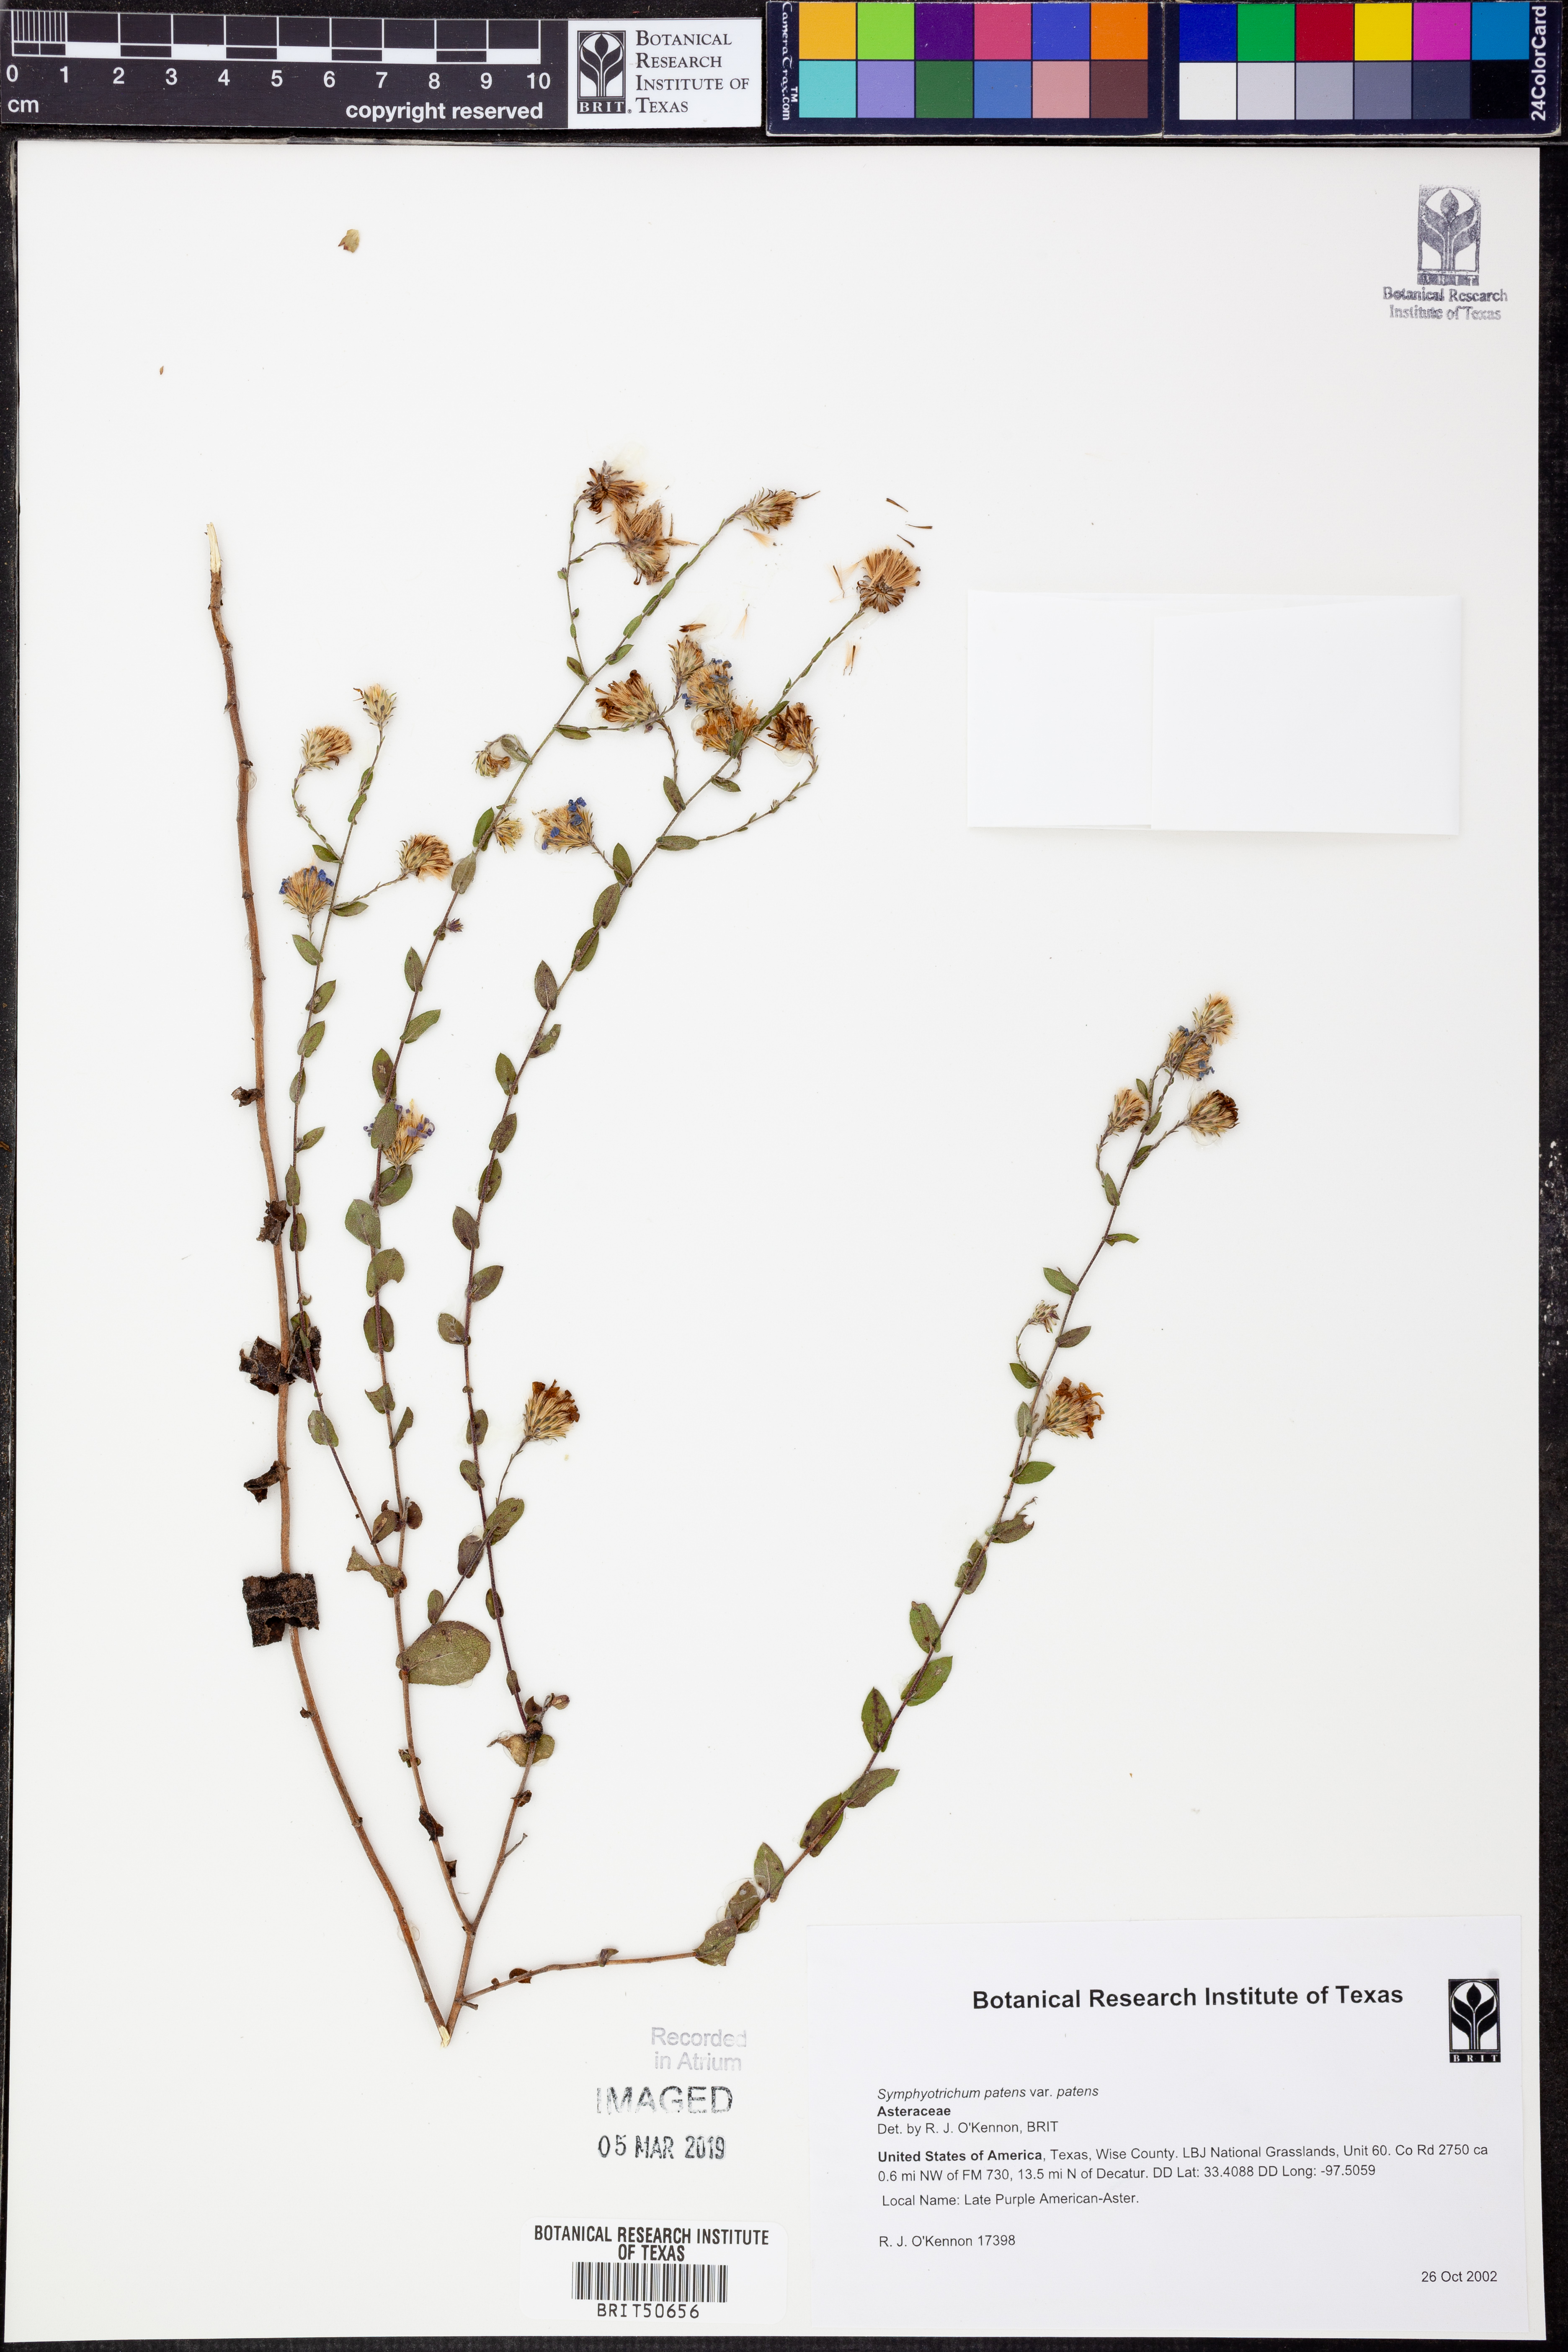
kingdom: Plantae
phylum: Tracheophyta
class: Magnoliopsida
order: Asterales
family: Asteraceae
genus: Symphyotrichum
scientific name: Symphyotrichum patens
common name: Late purple aster
